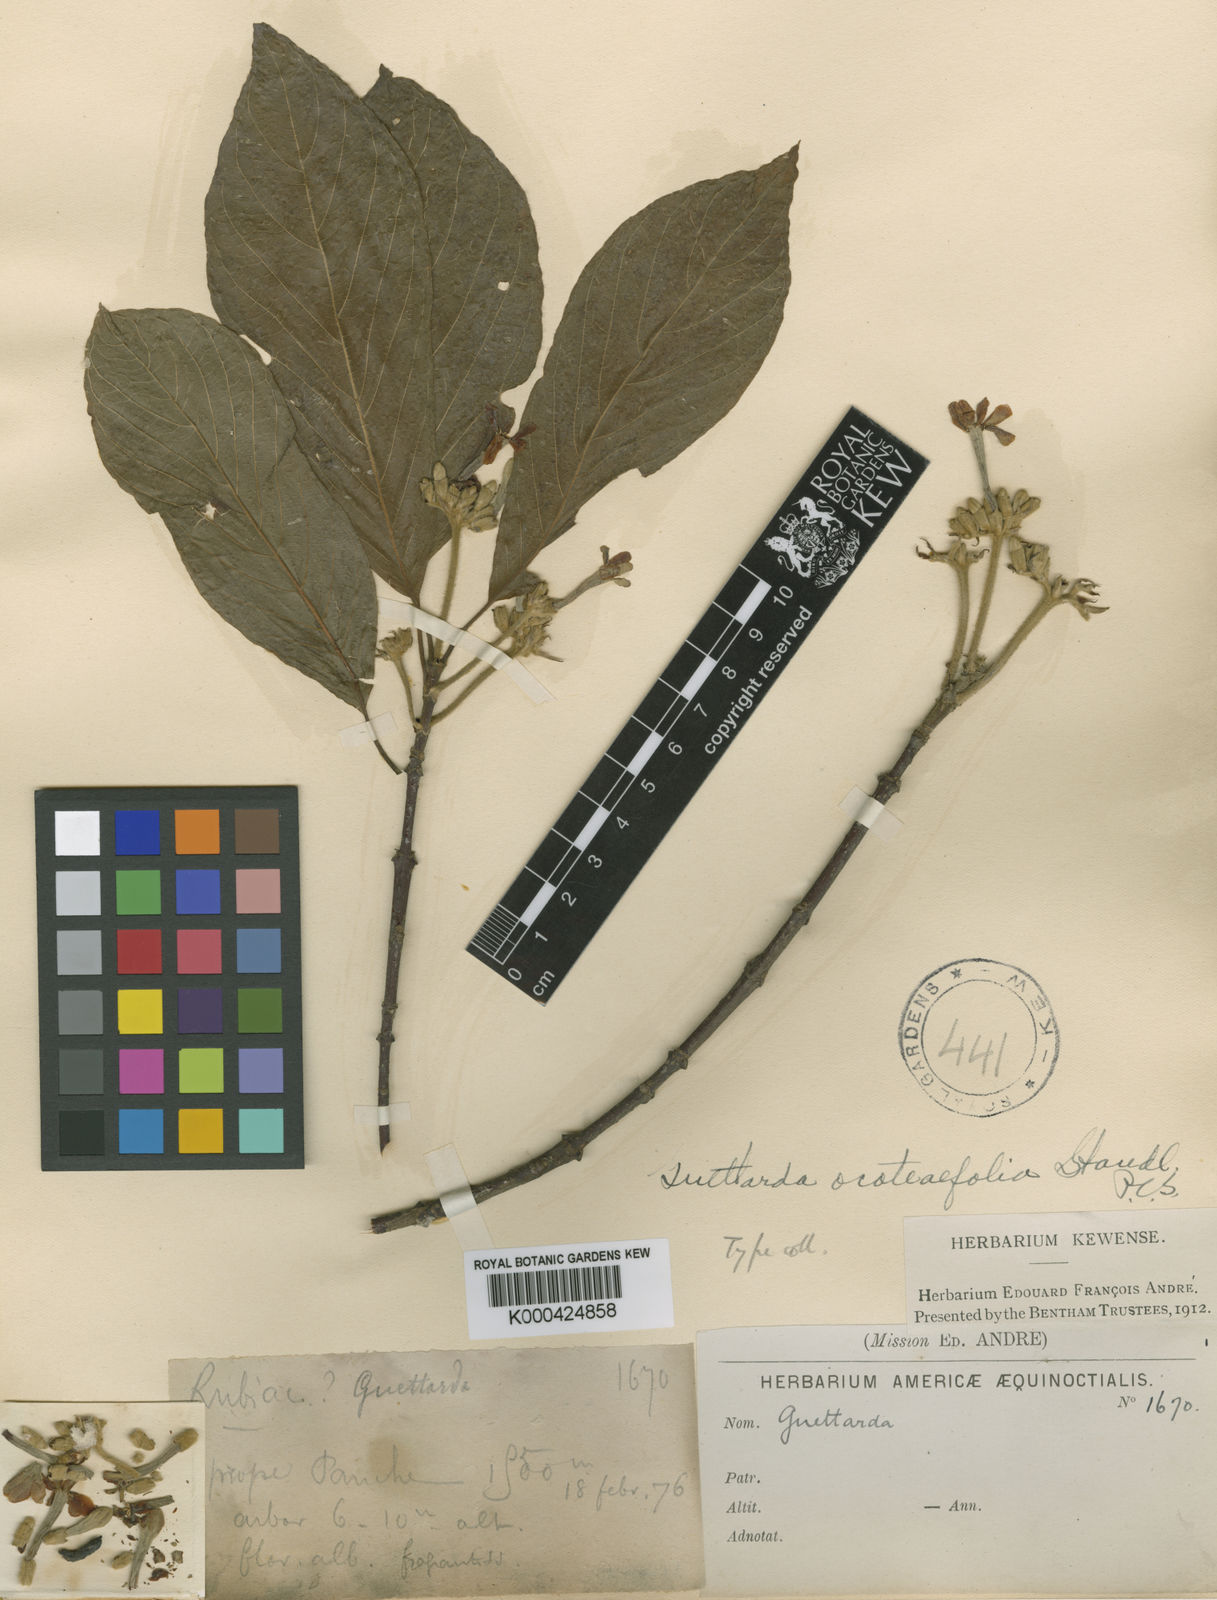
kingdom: Plantae
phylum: Tracheophyta
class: Magnoliopsida
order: Gentianales
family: Rubiaceae
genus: Guettarda
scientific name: Guettarda ocoteifolia
